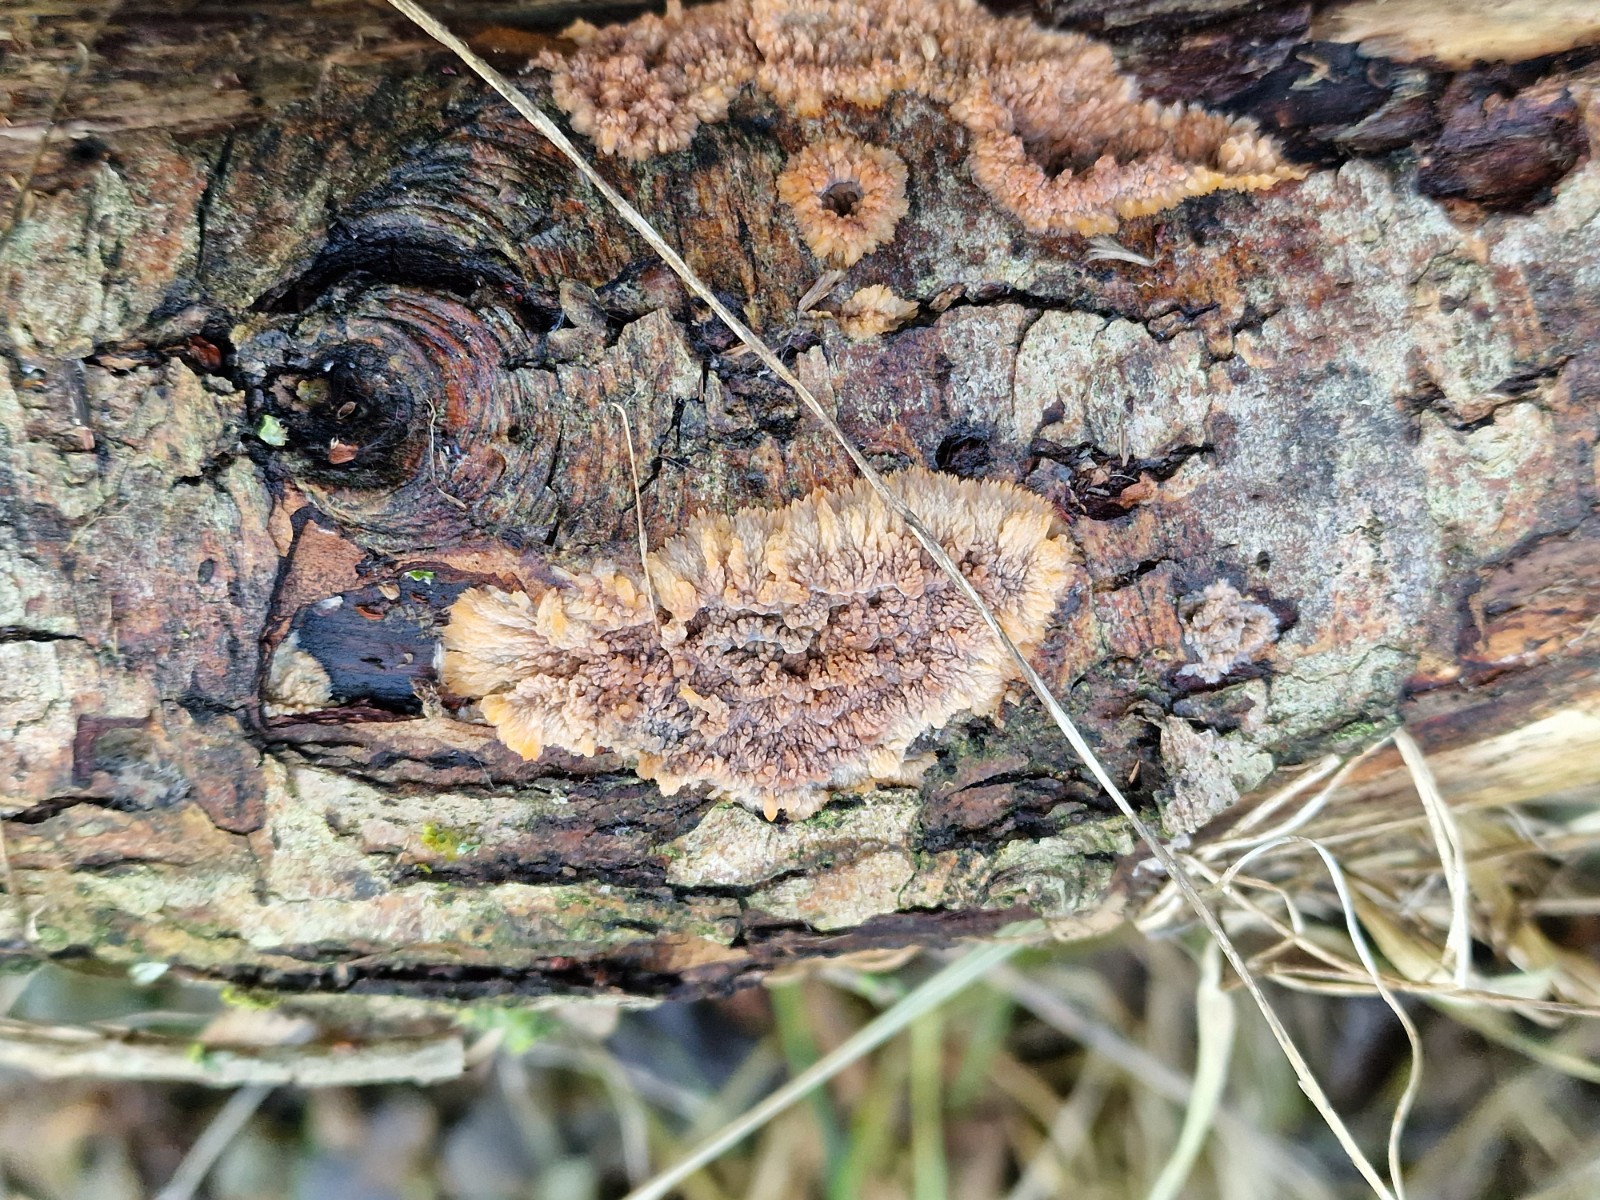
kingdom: Fungi
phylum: Basidiomycota
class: Agaricomycetes
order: Polyporales
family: Meruliaceae
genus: Phlebia
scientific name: Phlebia radiata
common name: stråle-åresvamp
